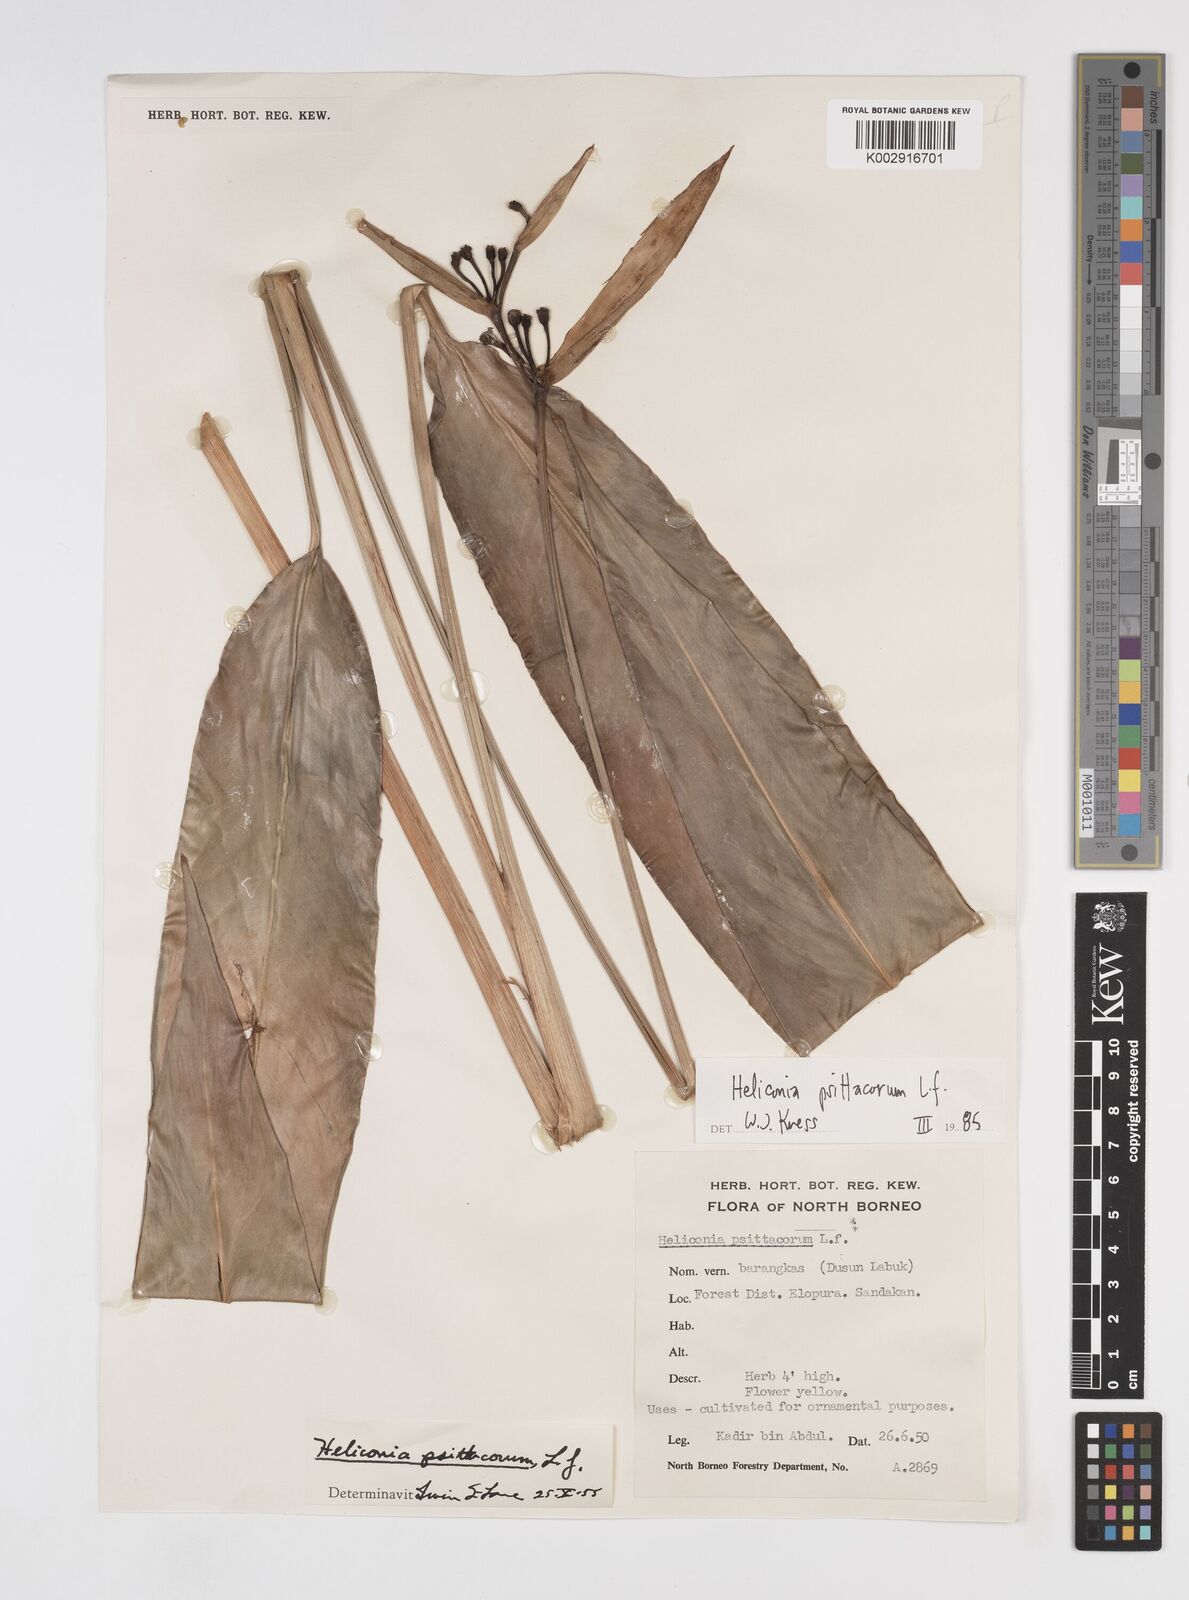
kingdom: Plantae
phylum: Tracheophyta
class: Liliopsida
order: Zingiberales
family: Heliconiaceae
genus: Heliconia
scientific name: Heliconia psittacorum
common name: Parrot's-flower
